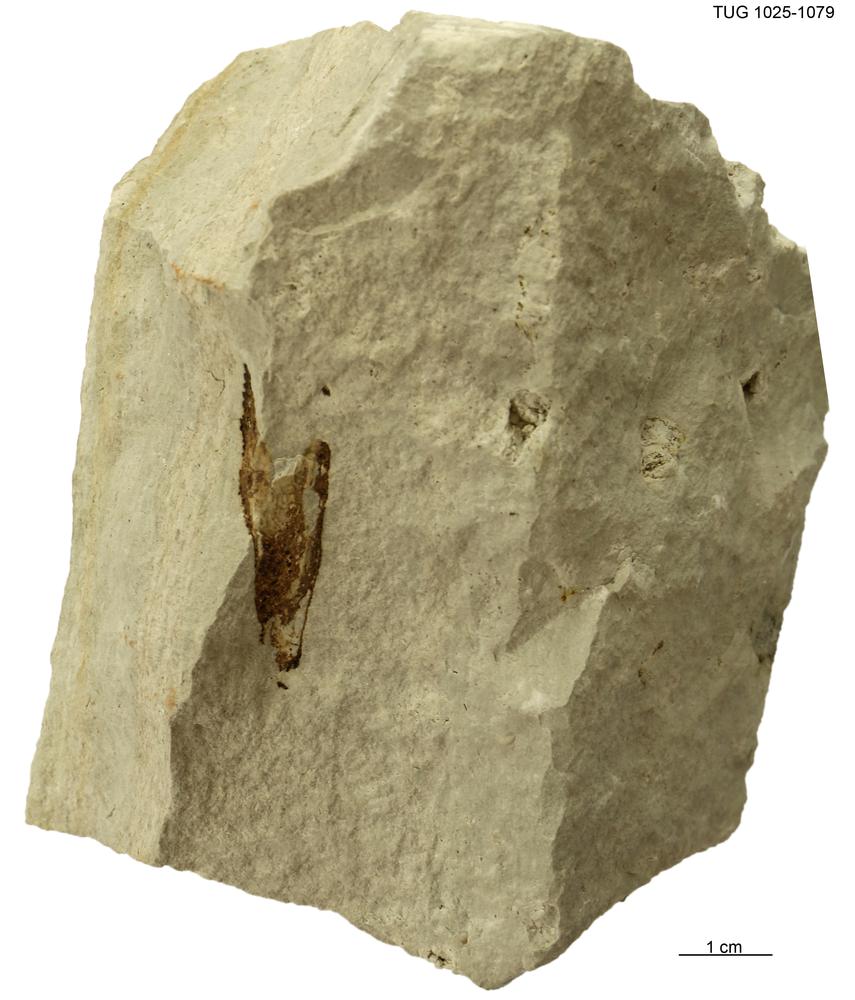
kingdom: Animalia
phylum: Chordata
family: Dartmuthiidae
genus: Dartmuthia
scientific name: Dartmuthia
